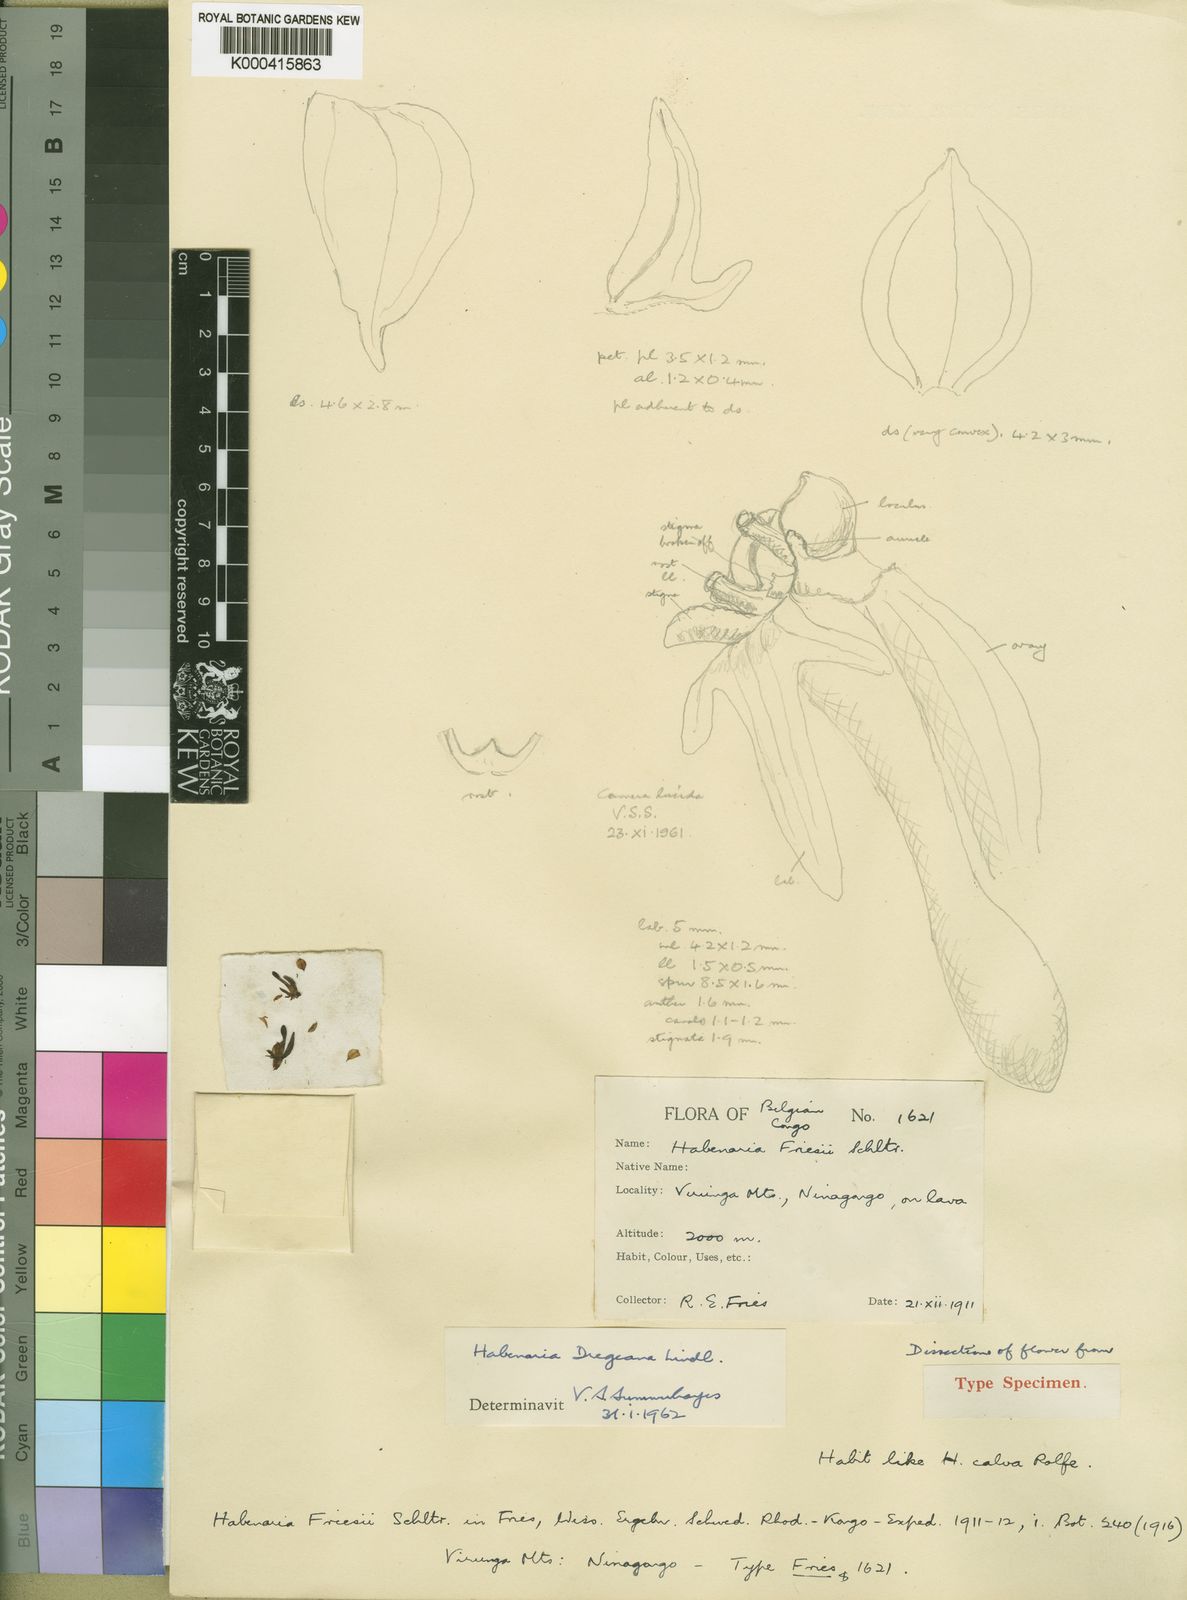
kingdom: Plantae
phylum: Tracheophyta
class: Liliopsida
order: Asparagales
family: Orchidaceae
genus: Habenaria
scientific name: Habenaria dregeana
